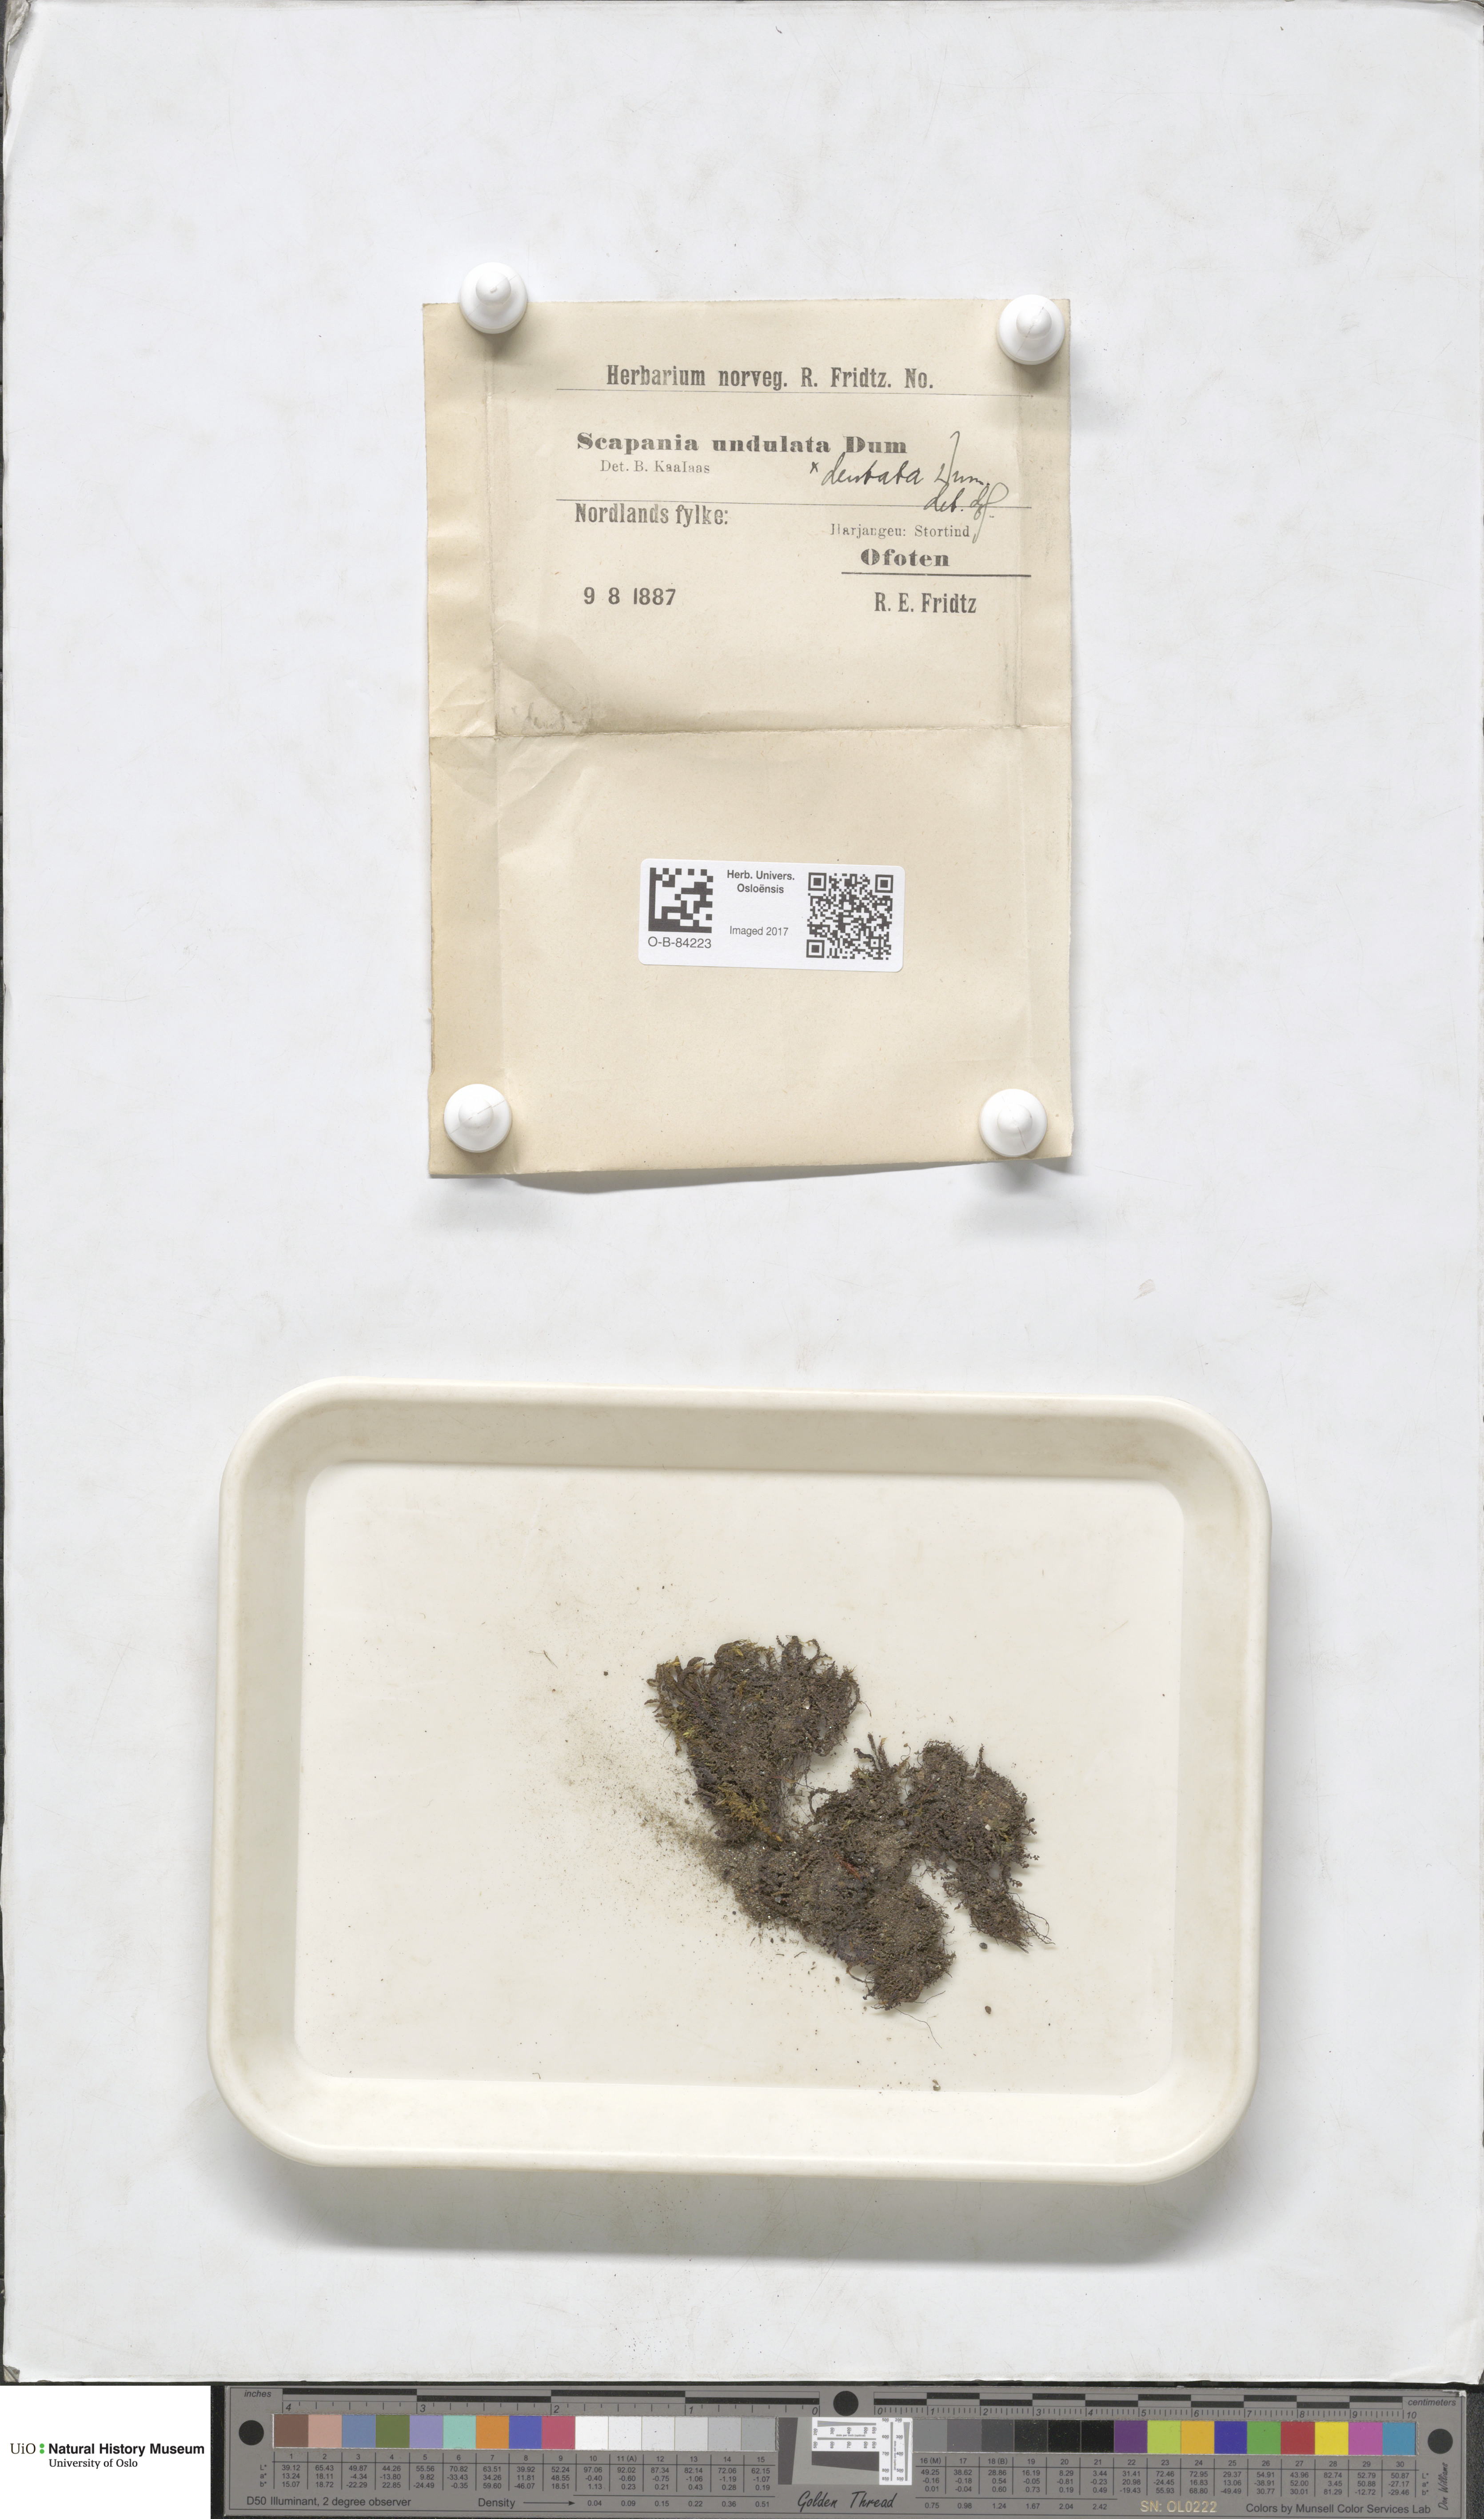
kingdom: Plantae
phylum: Marchantiophyta
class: Jungermanniopsida
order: Jungermanniales
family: Scapaniaceae
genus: Scapania
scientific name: Scapania undulata
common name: Water earwort
